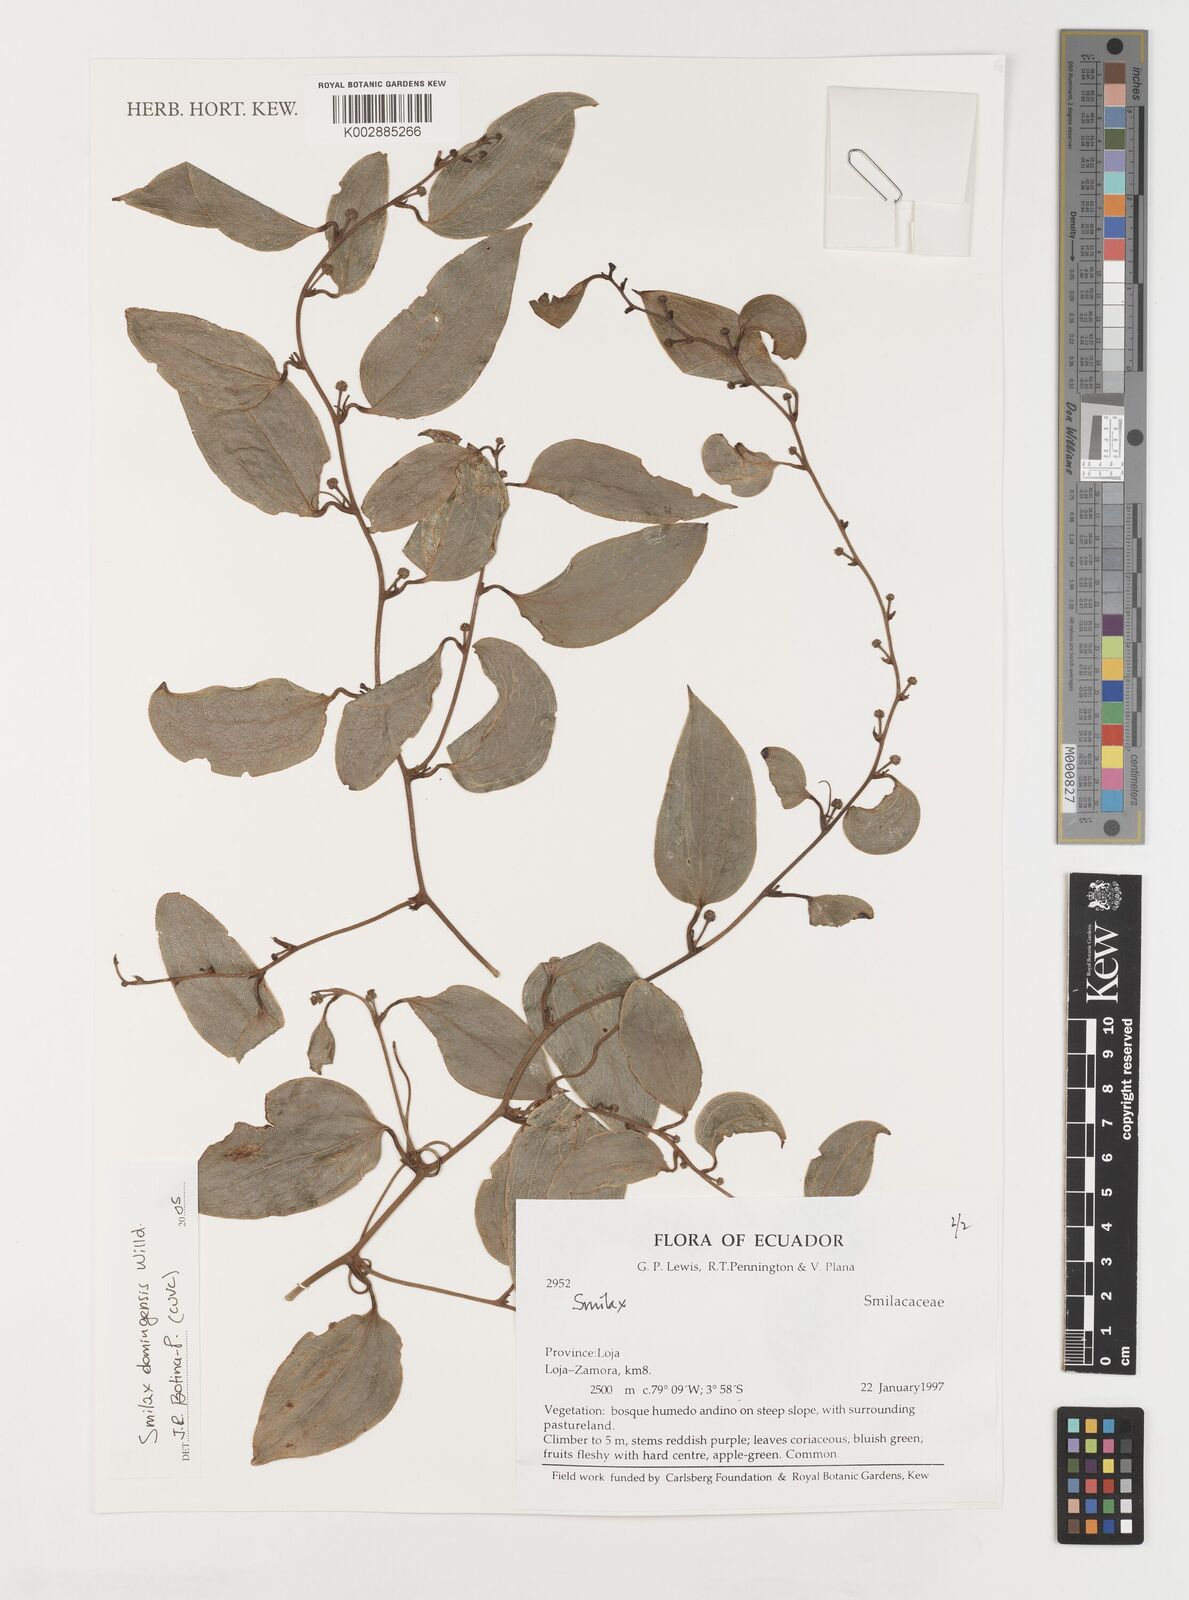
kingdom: Plantae
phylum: Tracheophyta
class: Liliopsida
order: Liliales
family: Smilacaceae
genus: Smilax
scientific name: Smilax domingensis
